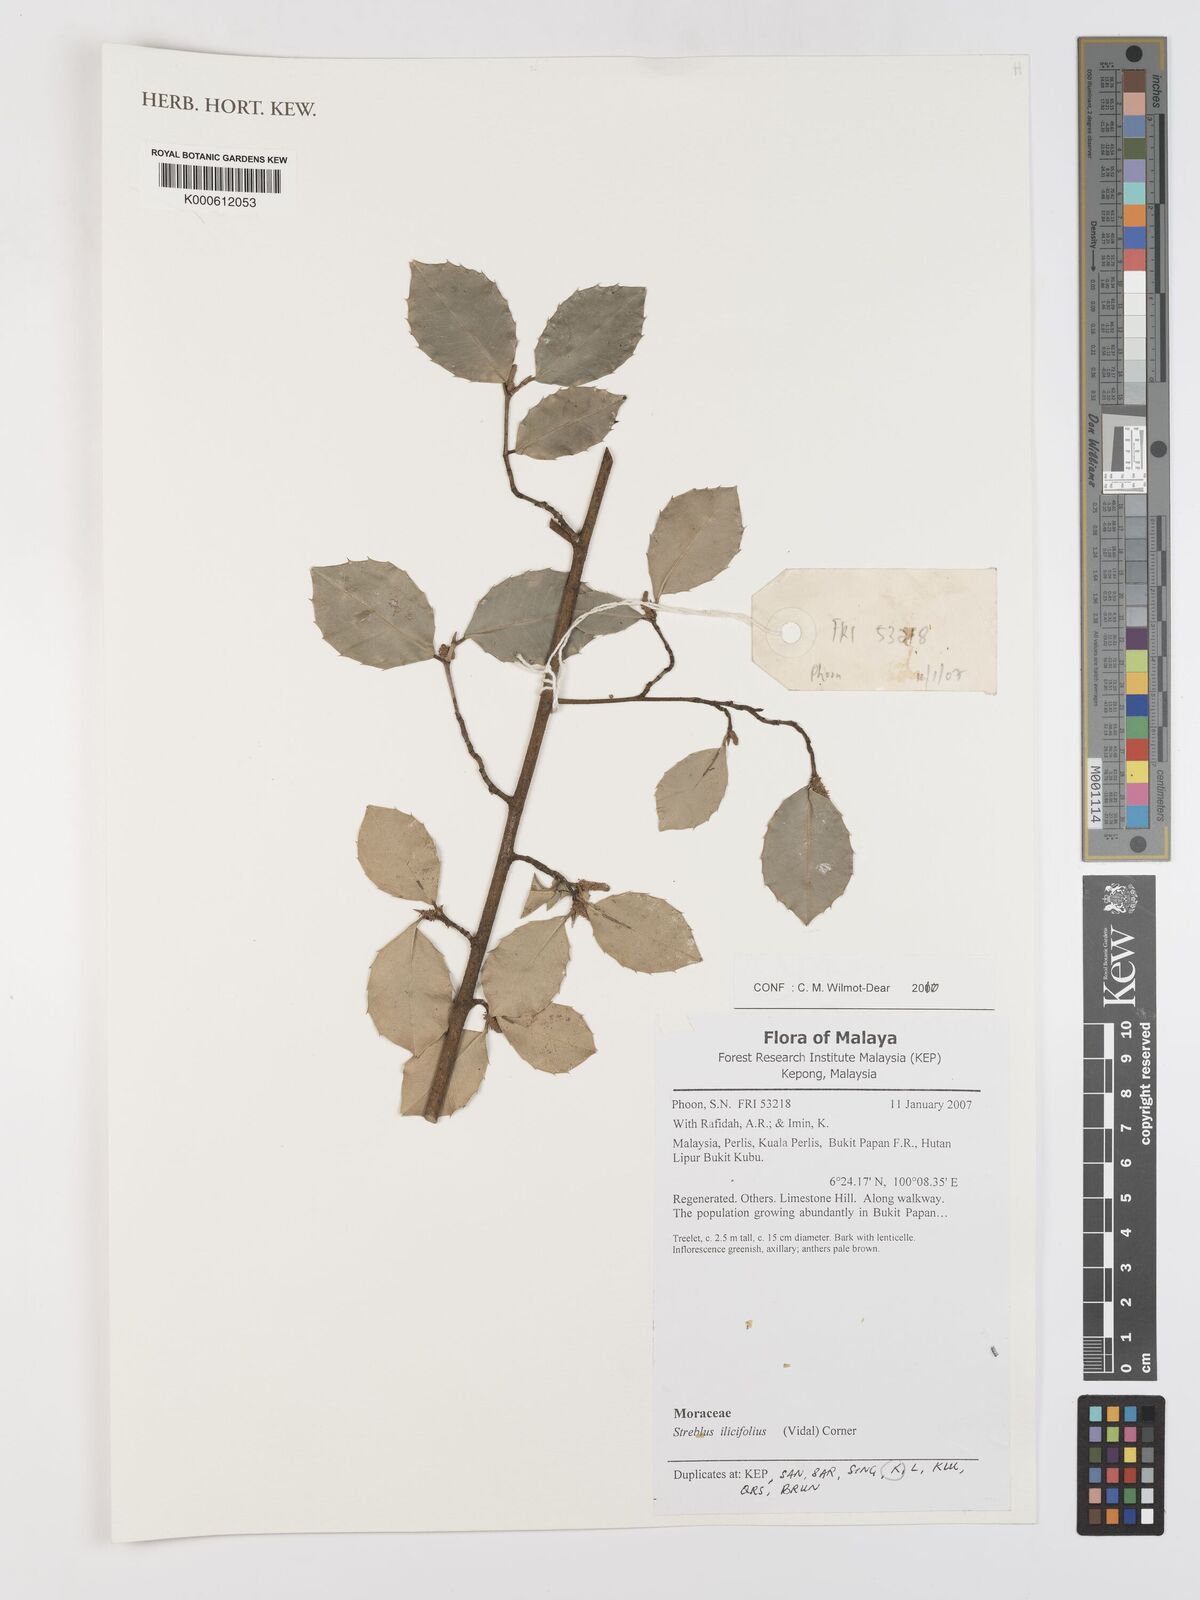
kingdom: Plantae
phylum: Tracheophyta
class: Magnoliopsida
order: Rosales
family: Moraceae
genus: Taxotrophis
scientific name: Taxotrophis ilicifolia
